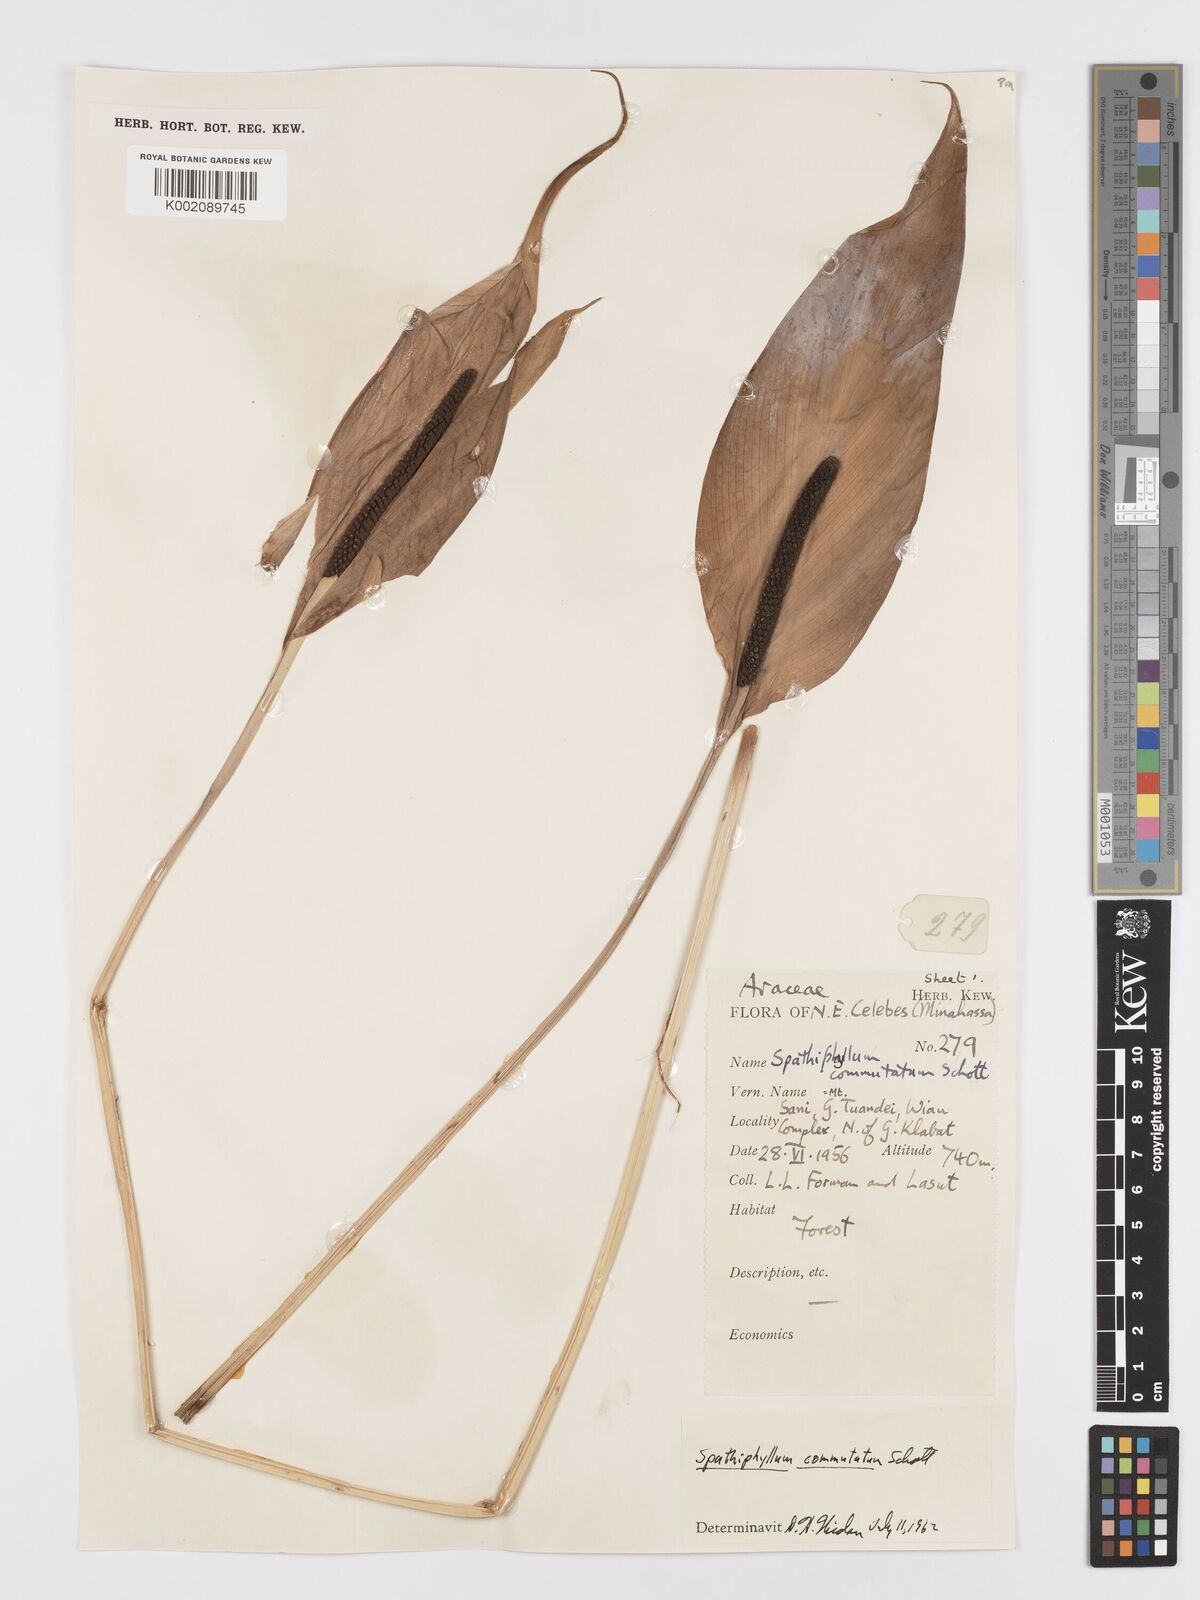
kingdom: Plantae
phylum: Tracheophyta
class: Liliopsida
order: Alismatales
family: Araceae
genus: Spathiphyllum
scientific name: Spathiphyllum commutatum
